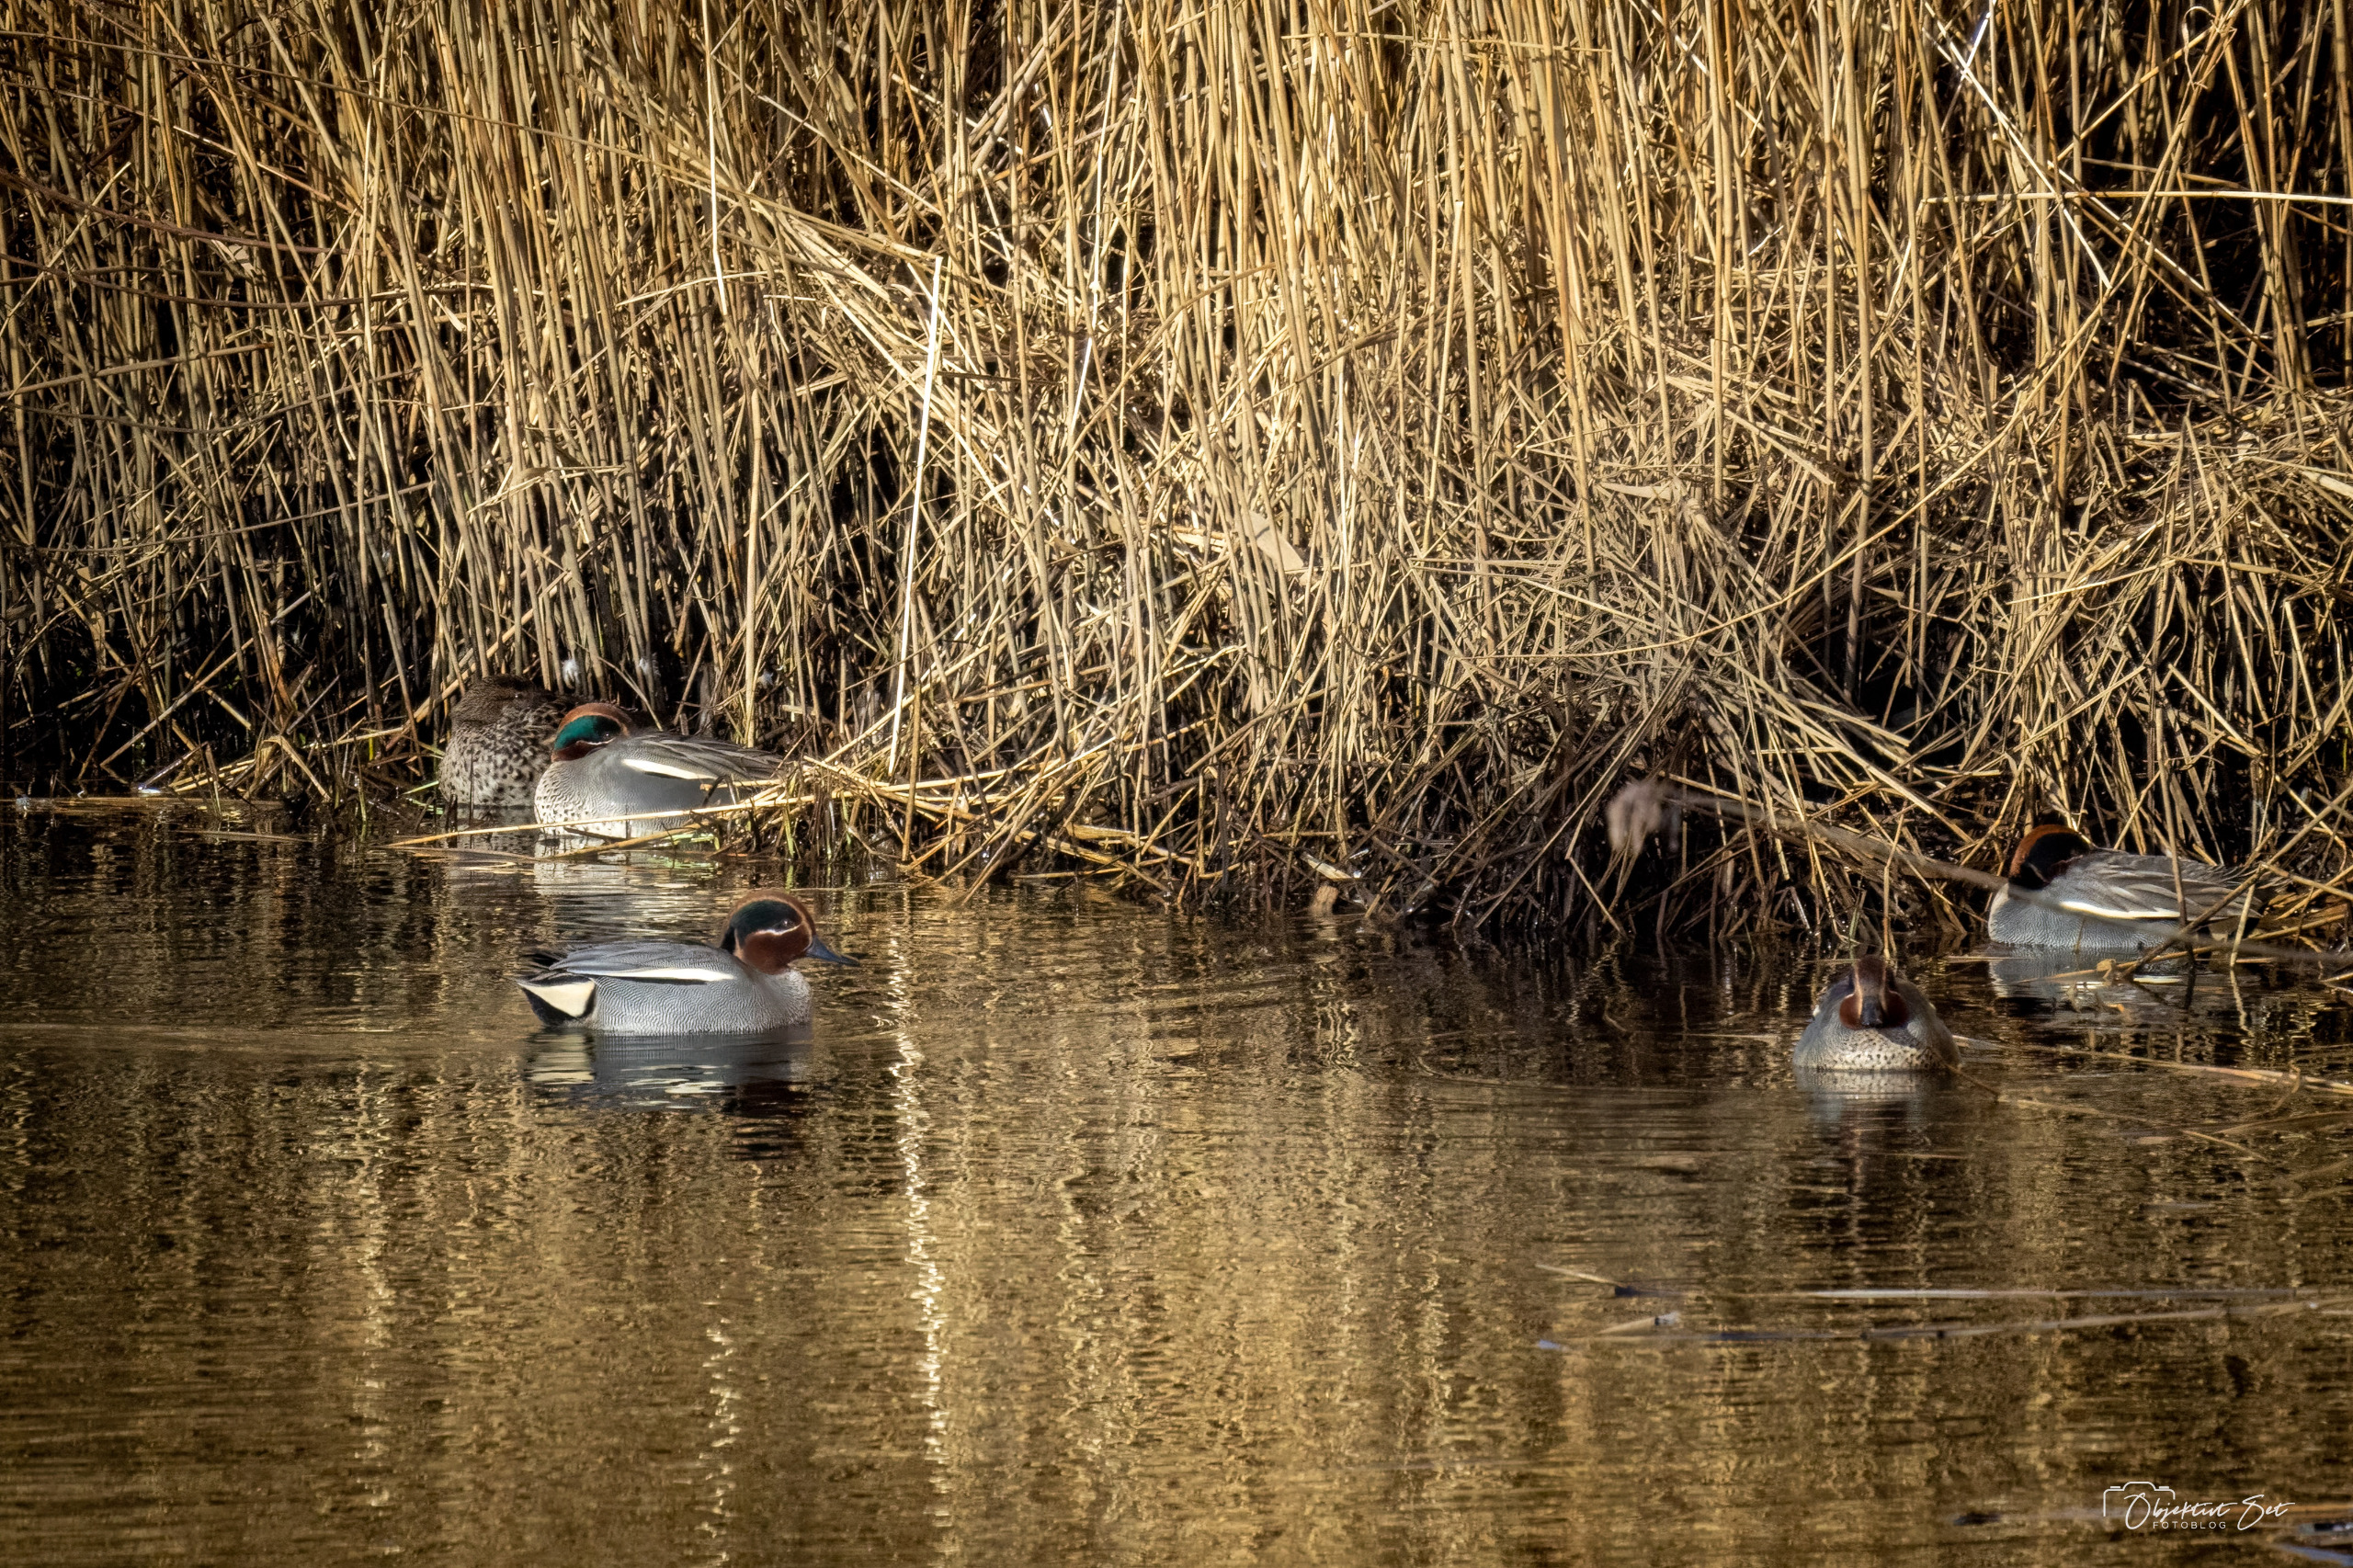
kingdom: Animalia
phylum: Chordata
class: Aves
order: Anseriformes
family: Anatidae
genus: Anas
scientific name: Anas crecca
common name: Krikand
